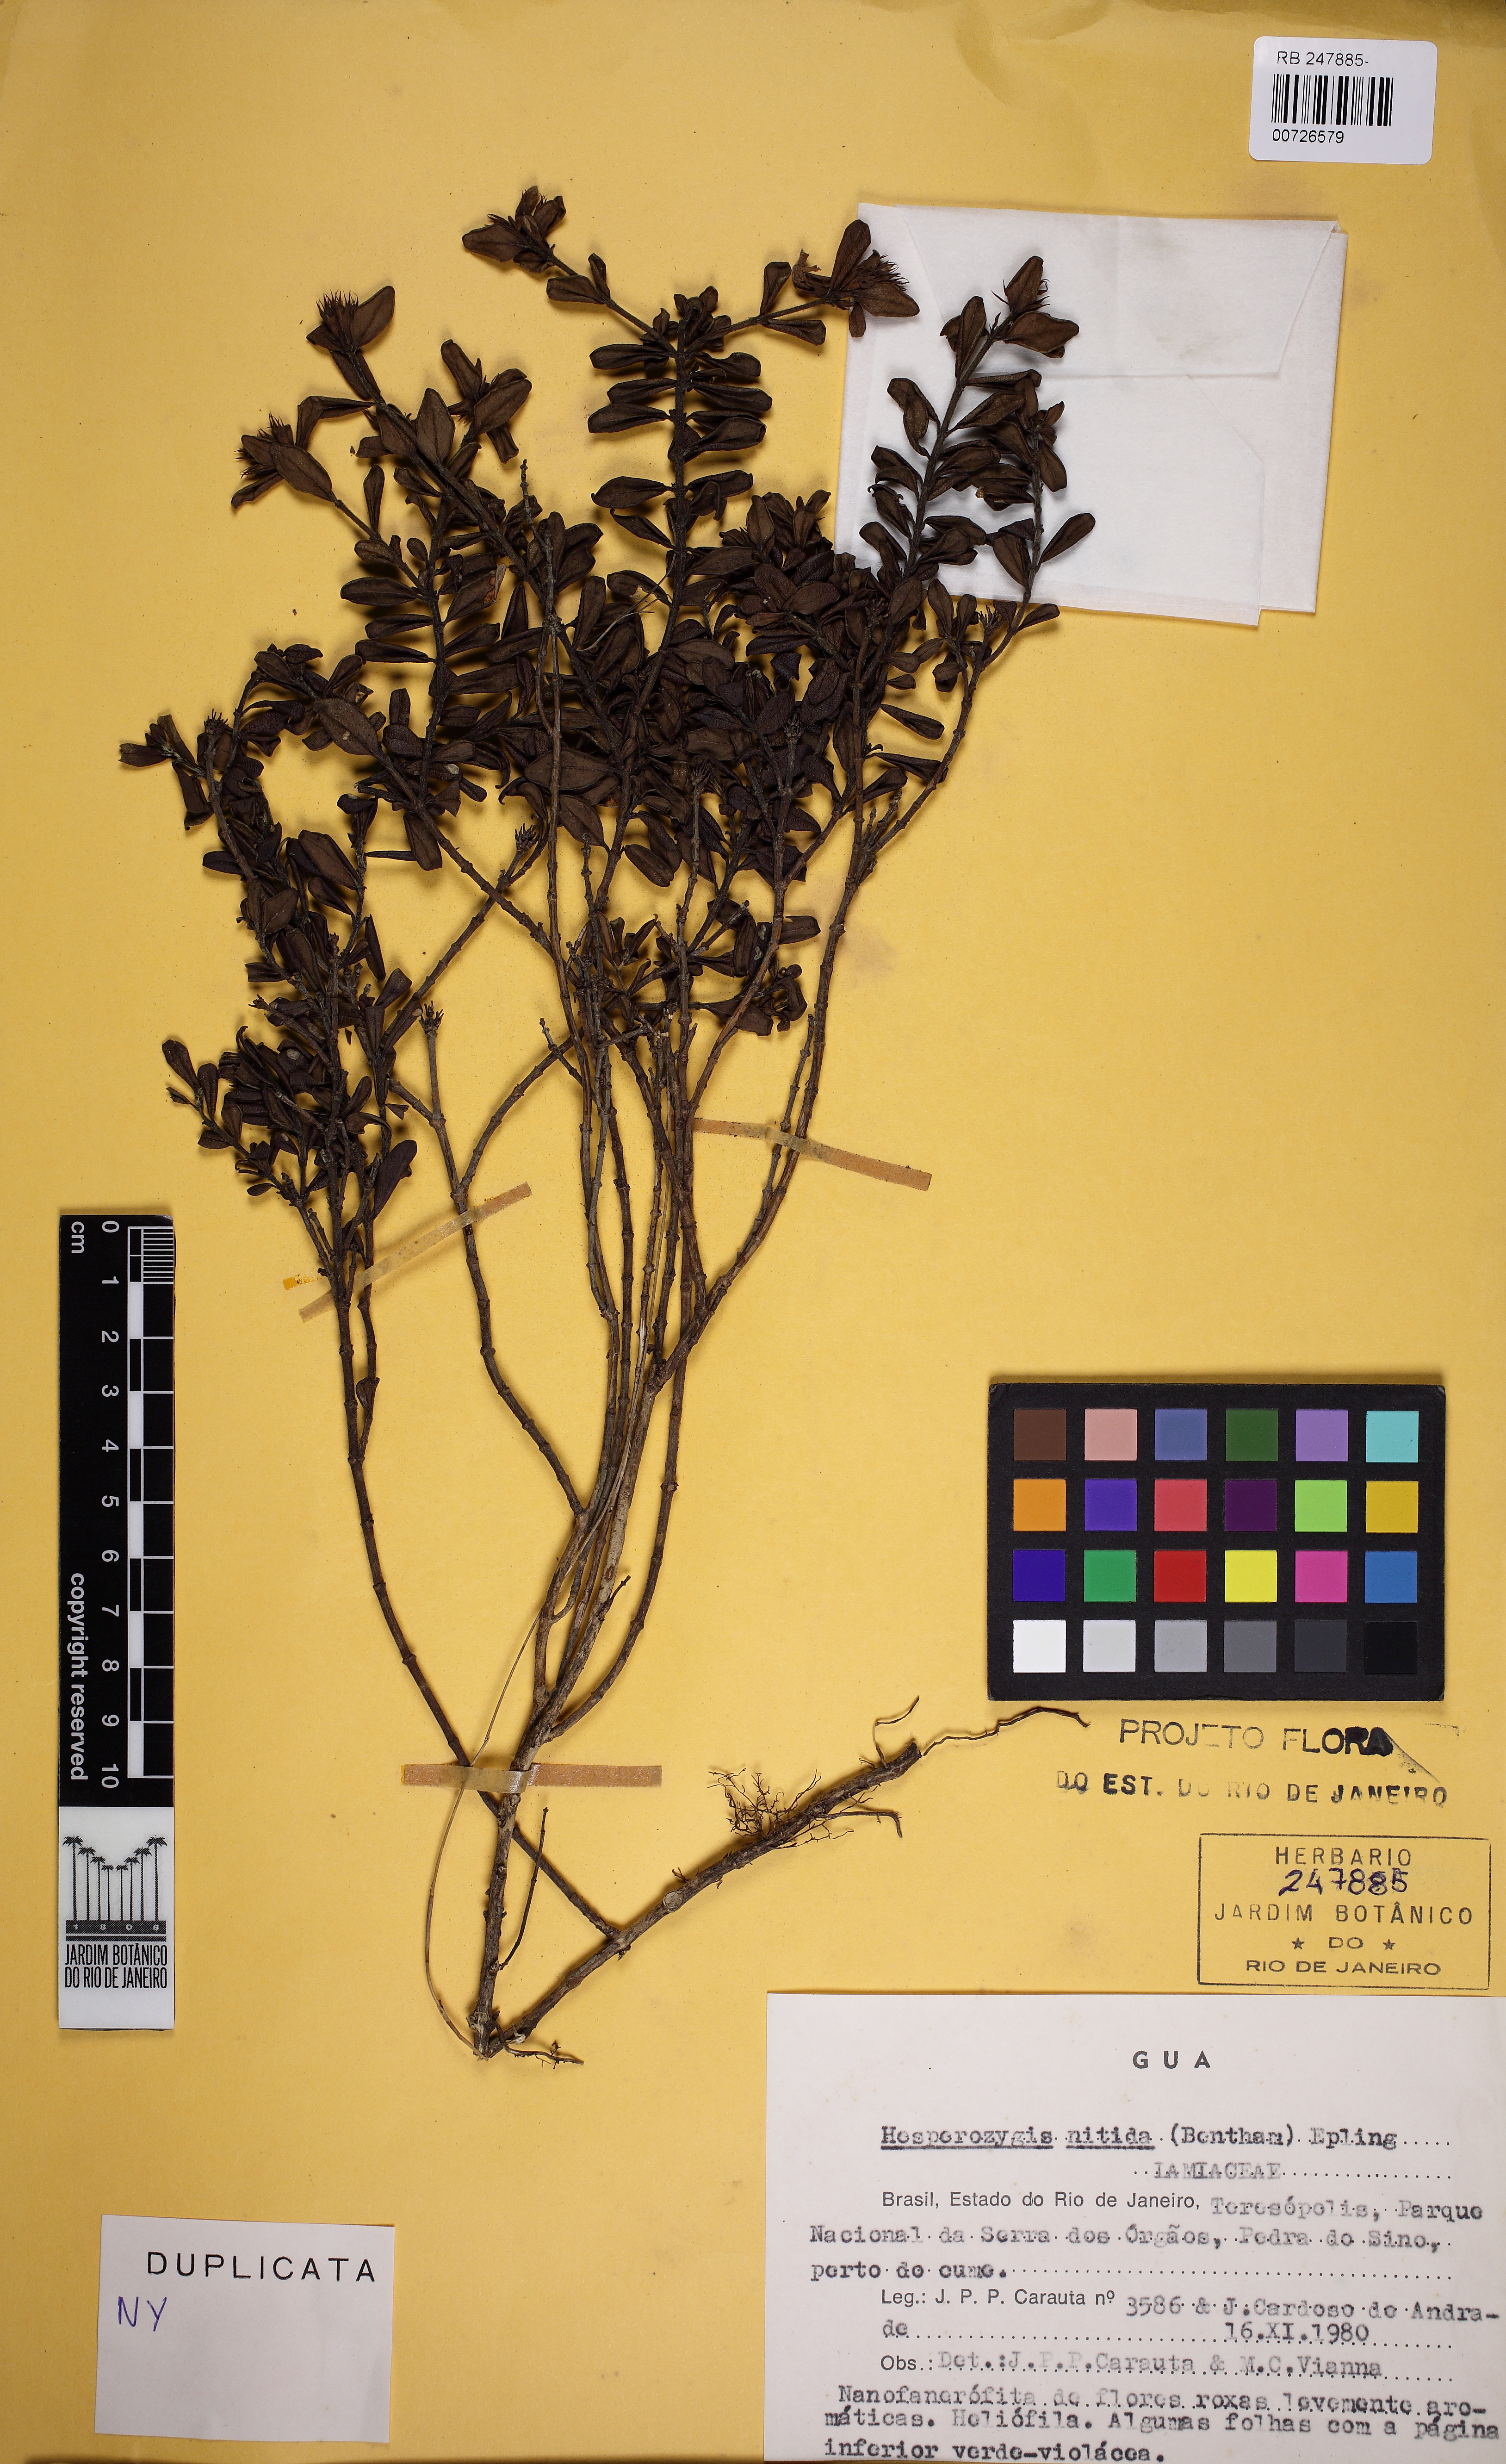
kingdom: Plantae
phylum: Tracheophyta
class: Magnoliopsida
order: Lamiales
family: Lamiaceae
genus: Hesperozygis
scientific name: Hesperozygis nitida
